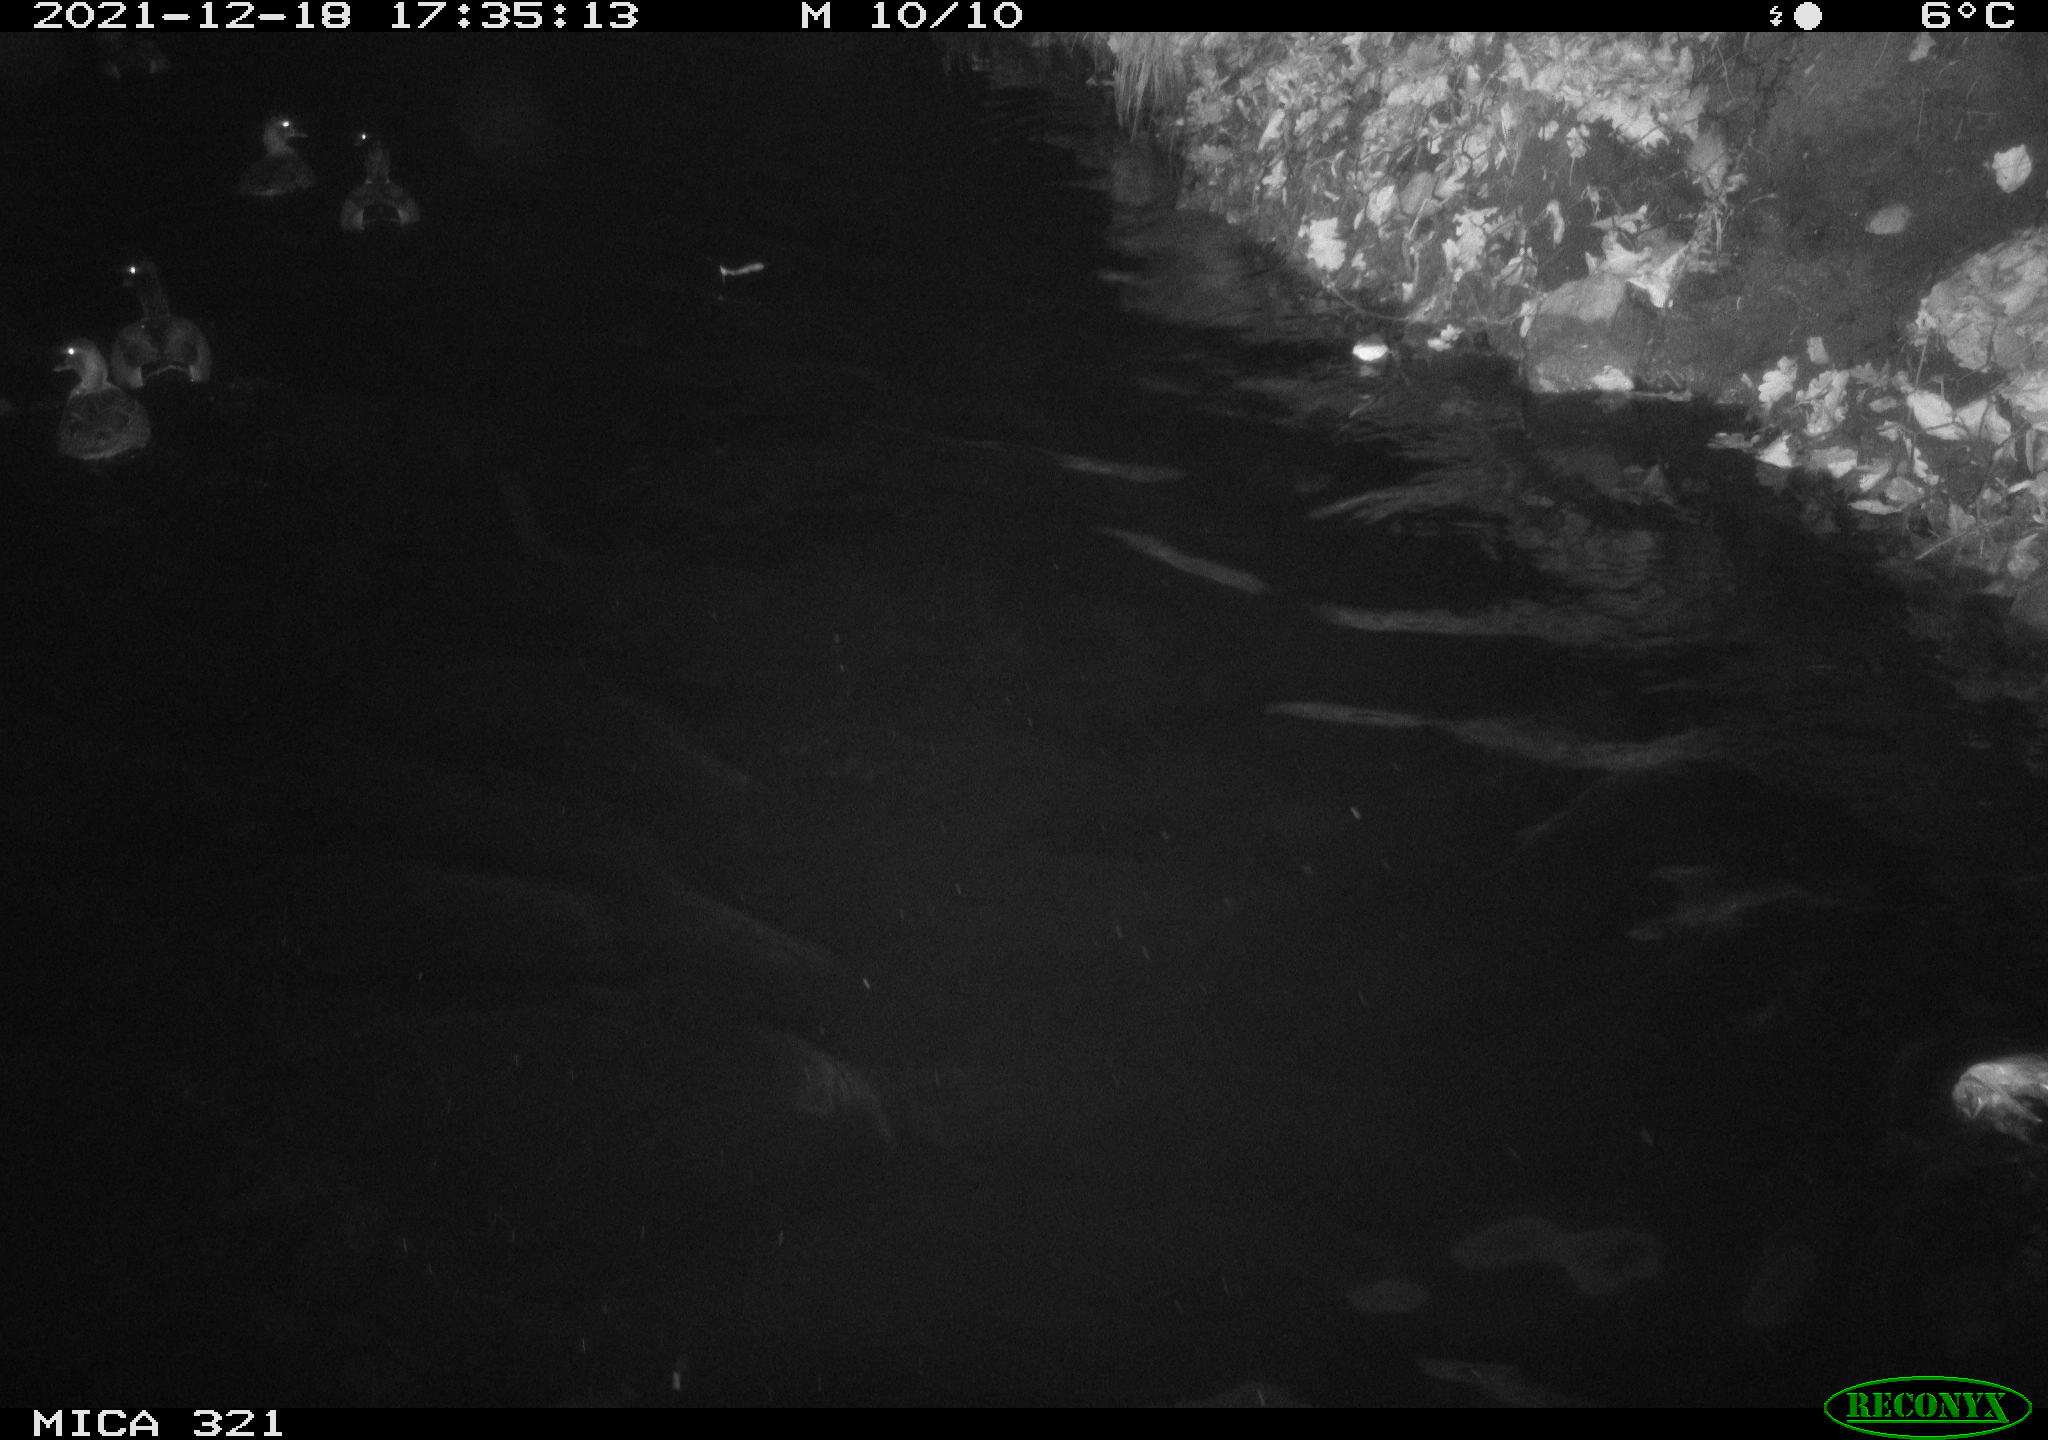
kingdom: Animalia
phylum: Chordata
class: Aves
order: Anseriformes
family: Anatidae
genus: Anas
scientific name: Anas
